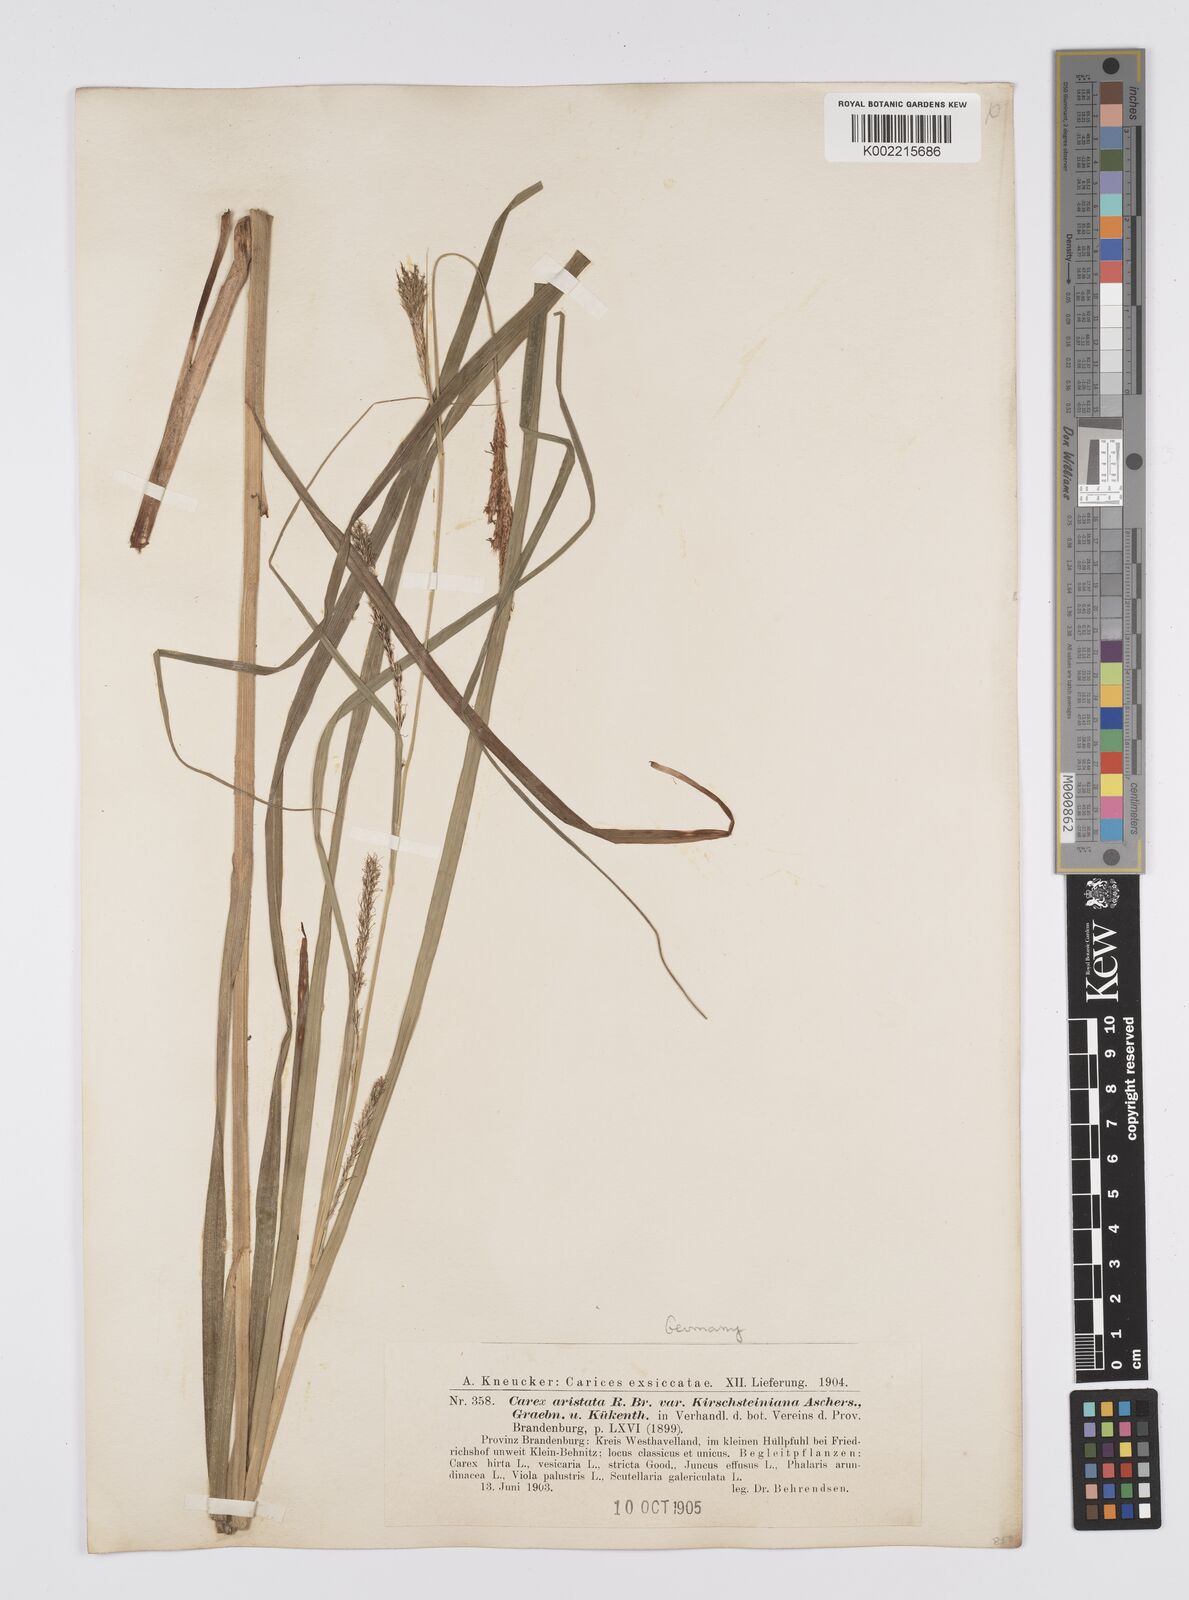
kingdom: Plantae
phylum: Tracheophyta
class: Liliopsida
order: Poales
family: Cyperaceae
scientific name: Cyperaceae
